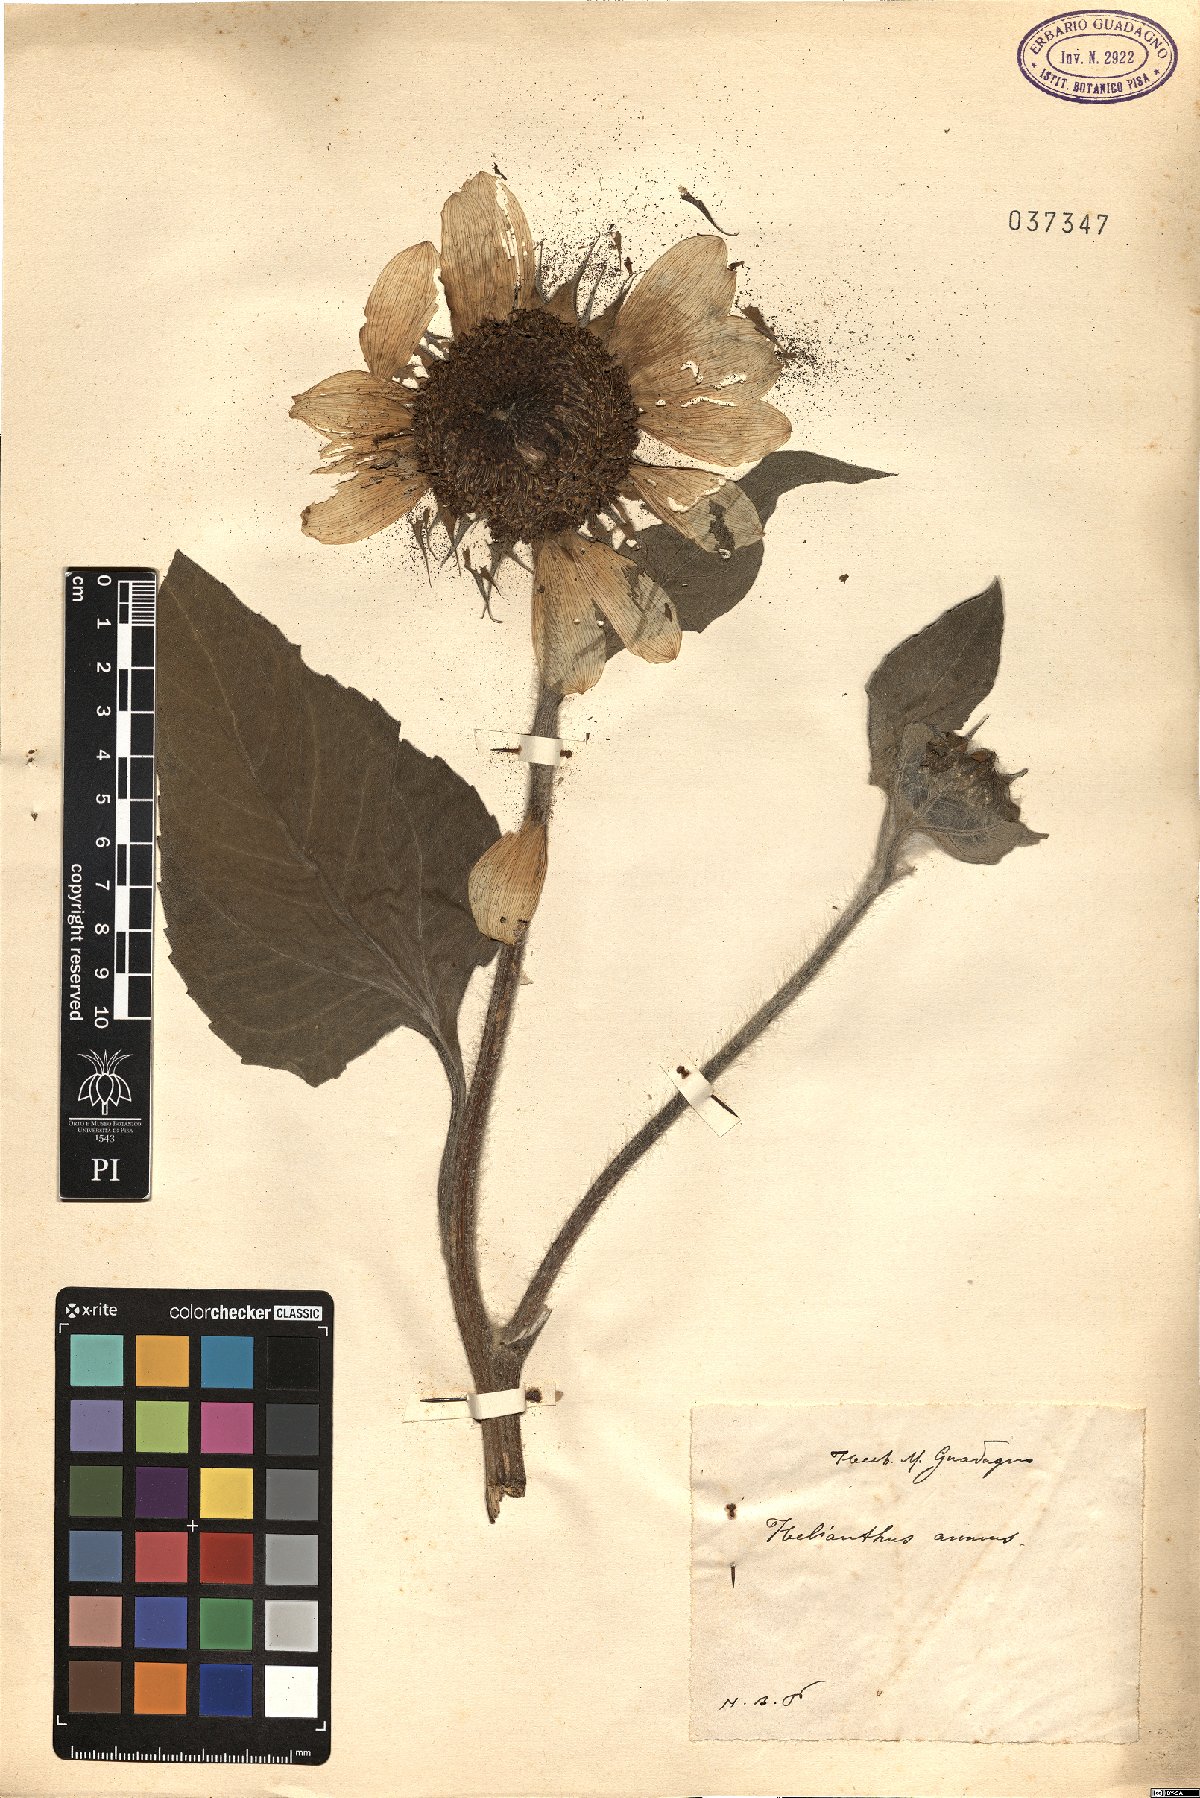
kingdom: Plantae
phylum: Tracheophyta
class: Magnoliopsida
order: Asterales
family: Asteraceae
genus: Helianthus
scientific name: Helianthus annuus
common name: Sunflower
